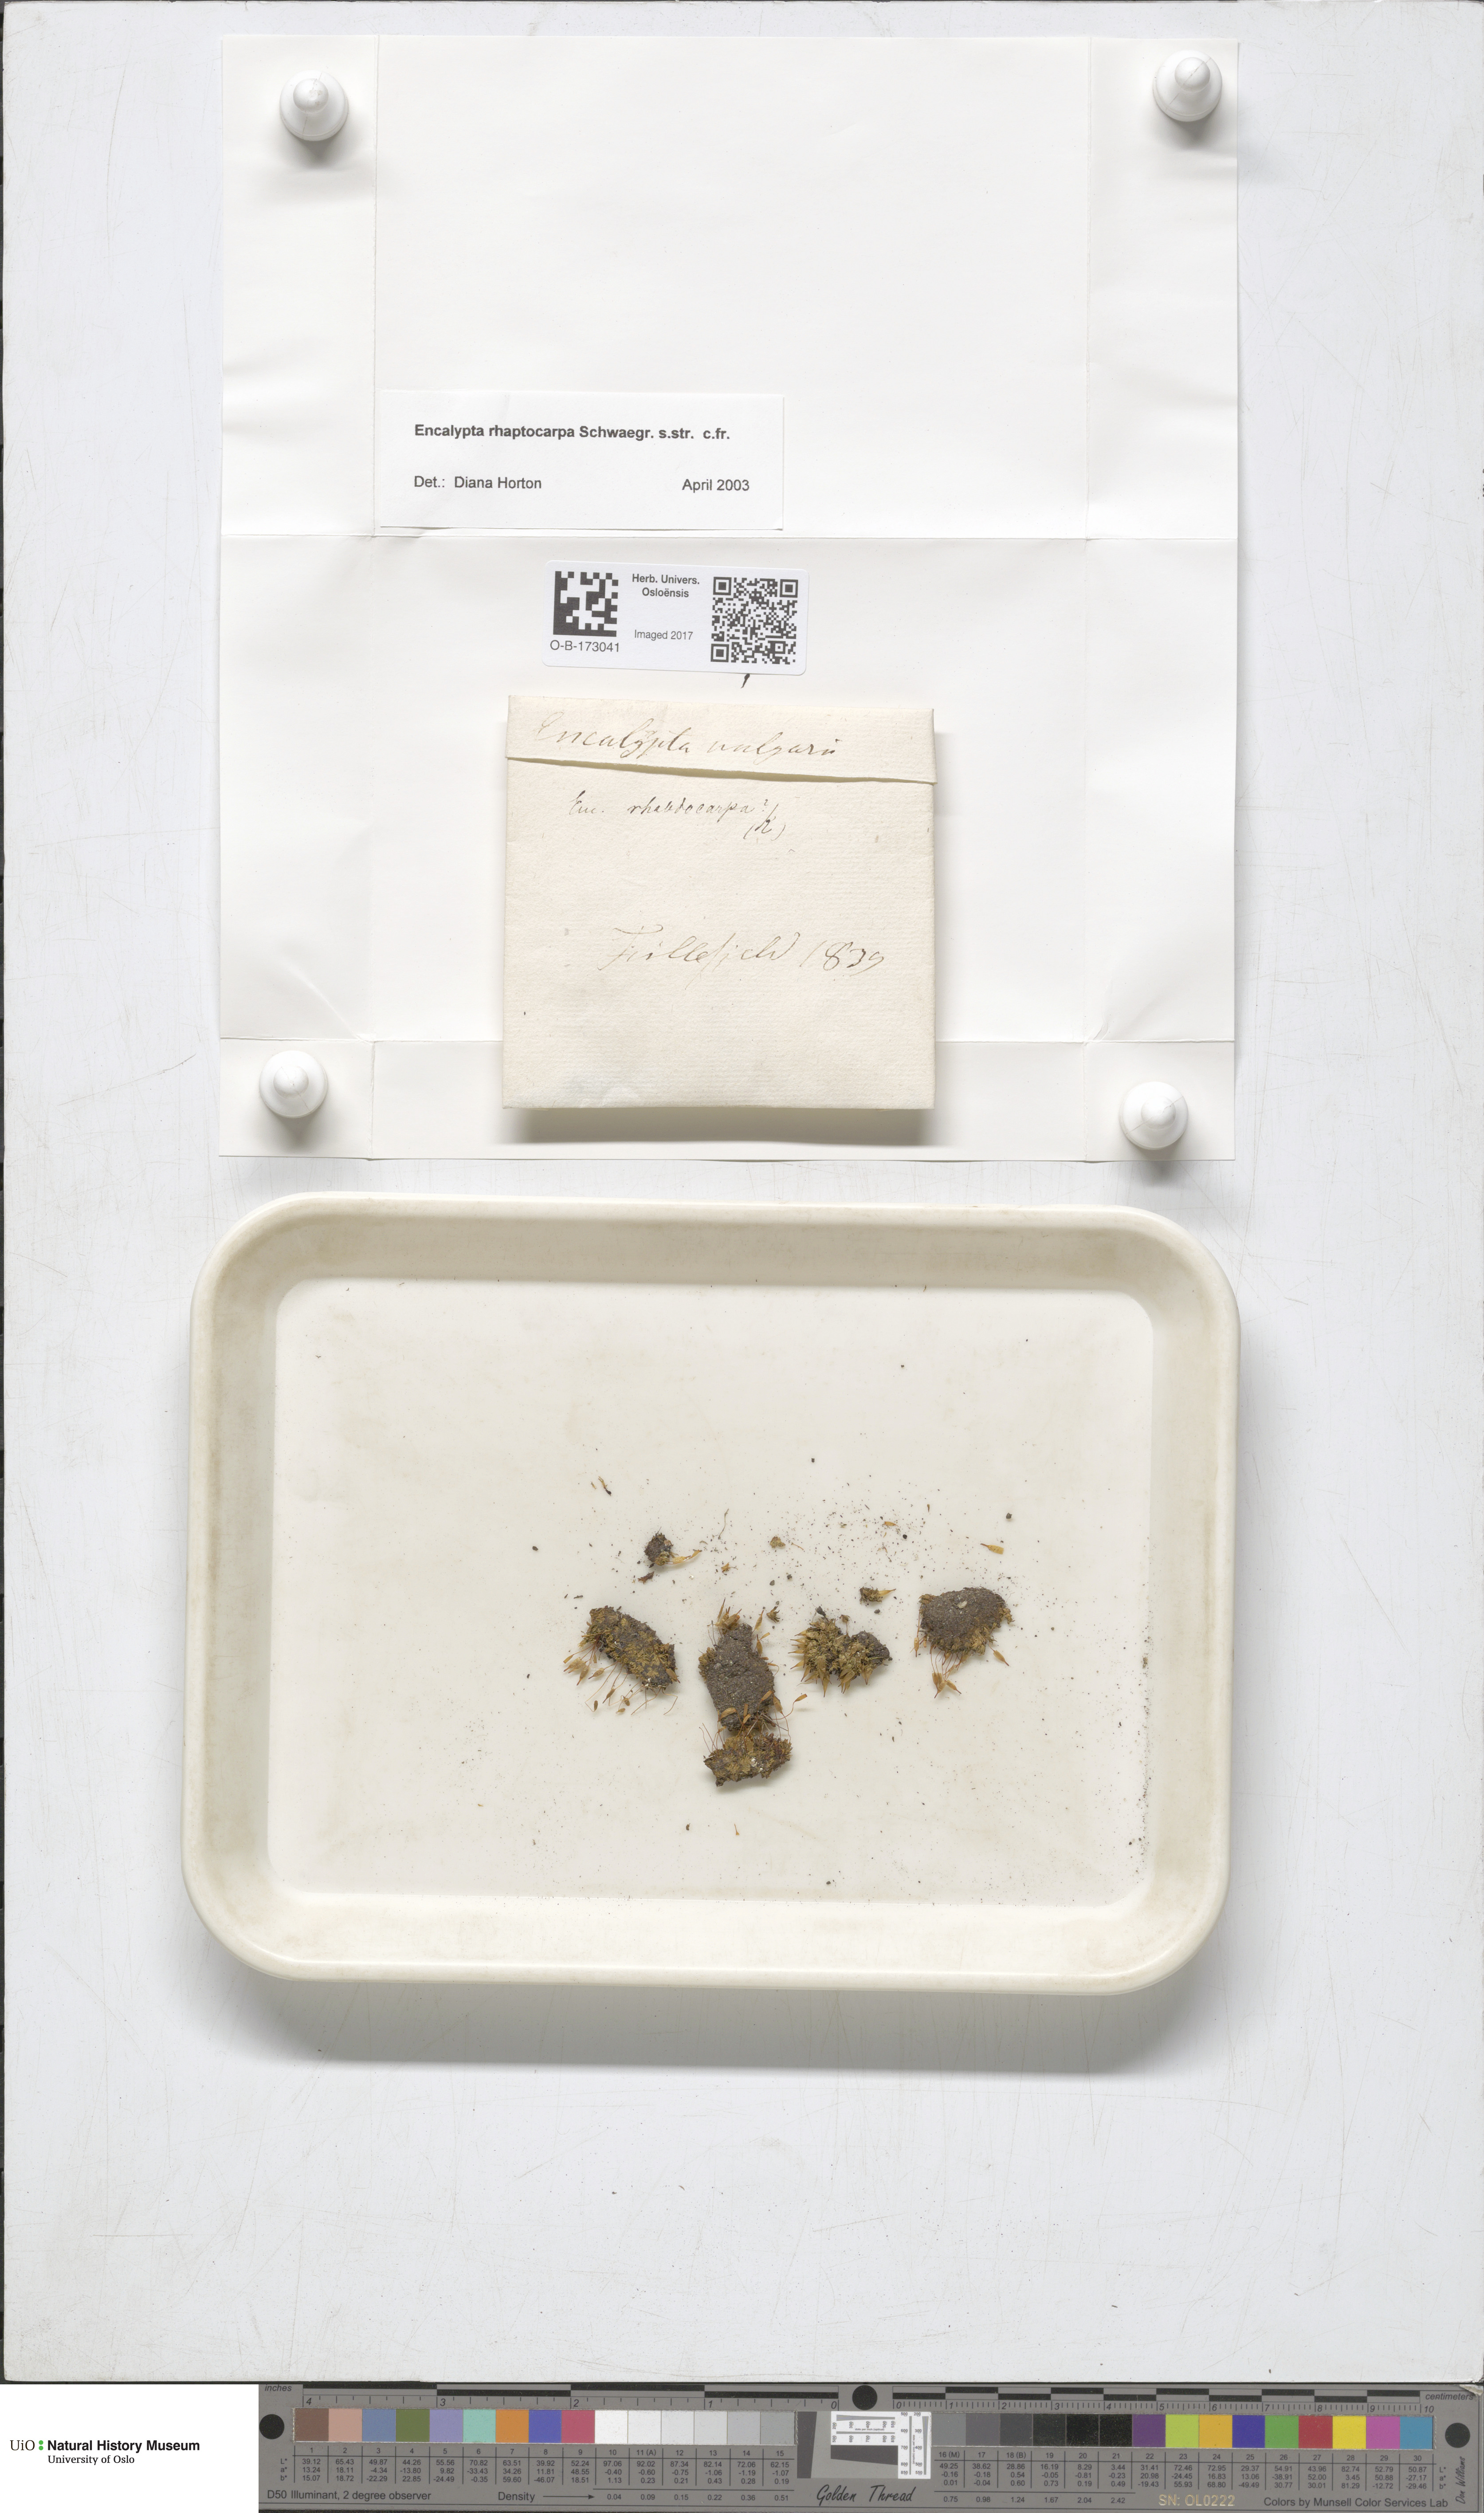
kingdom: Plantae
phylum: Bryophyta
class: Bryopsida
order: Encalyptales
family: Encalyptaceae
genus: Encalypta
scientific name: Encalypta rhaptocarpa
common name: Ribbed extinguisher moss
